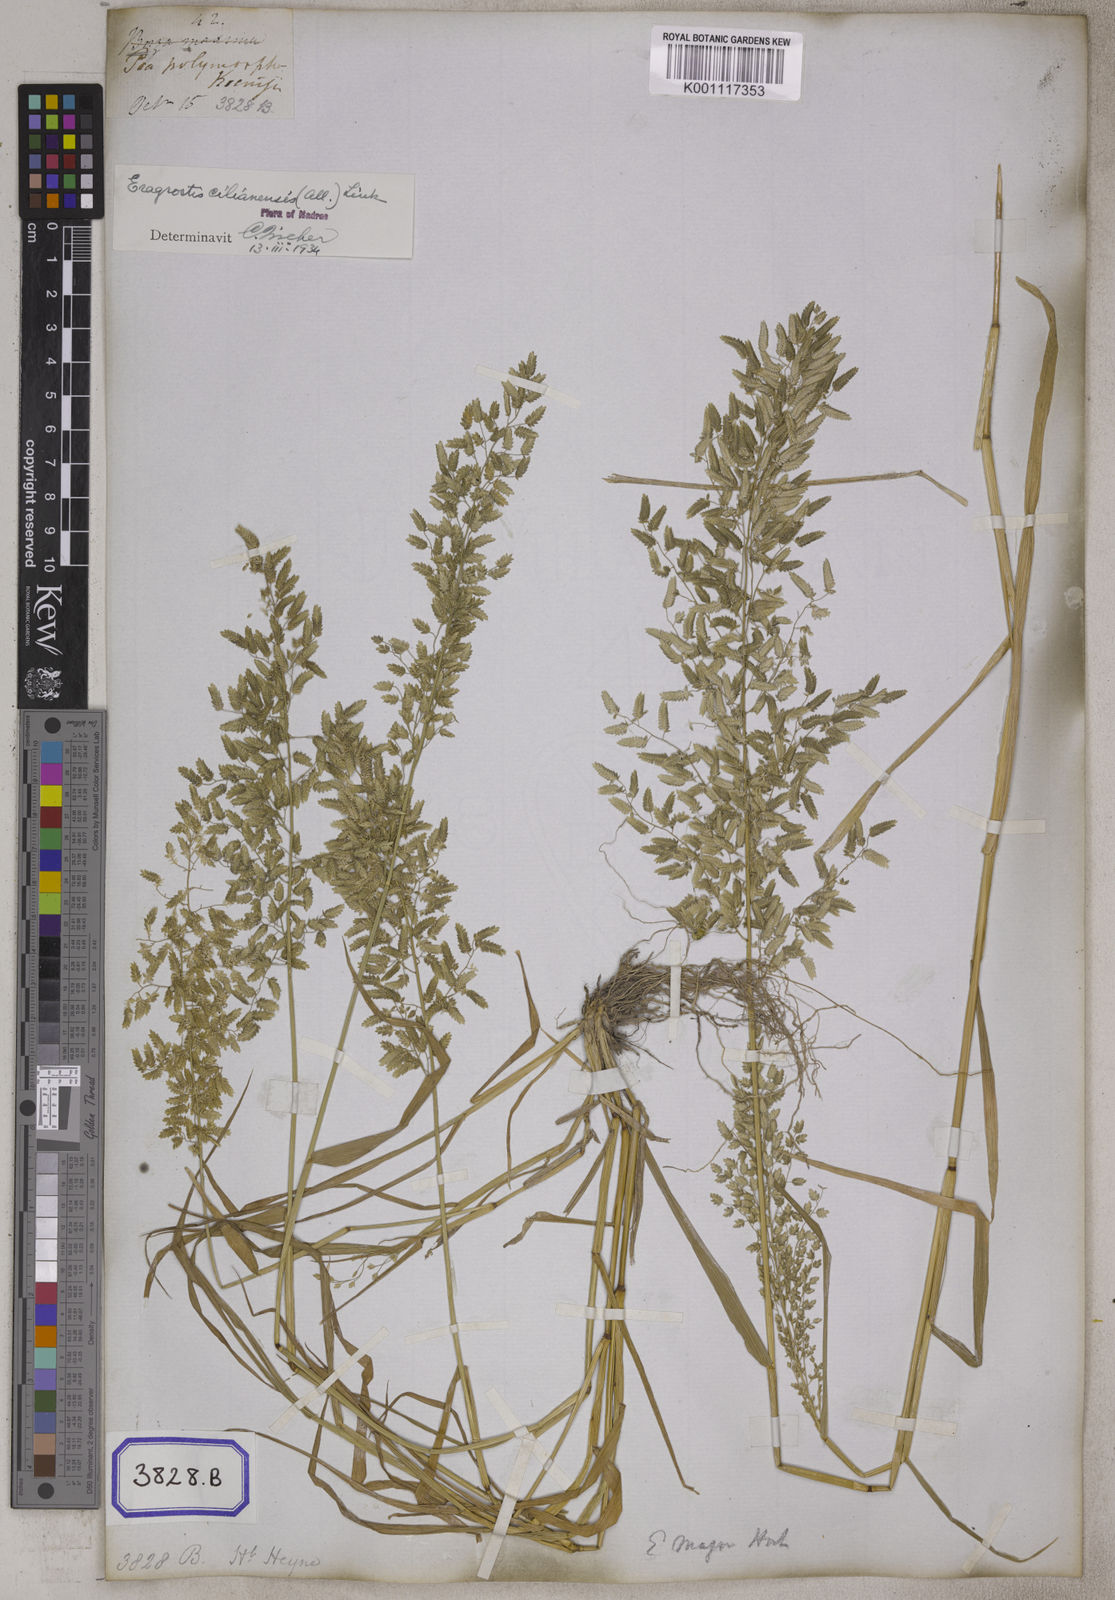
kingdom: Plantae
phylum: Tracheophyta
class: Liliopsida
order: Poales
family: Poaceae
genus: Eragrostis
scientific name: Eragrostis
